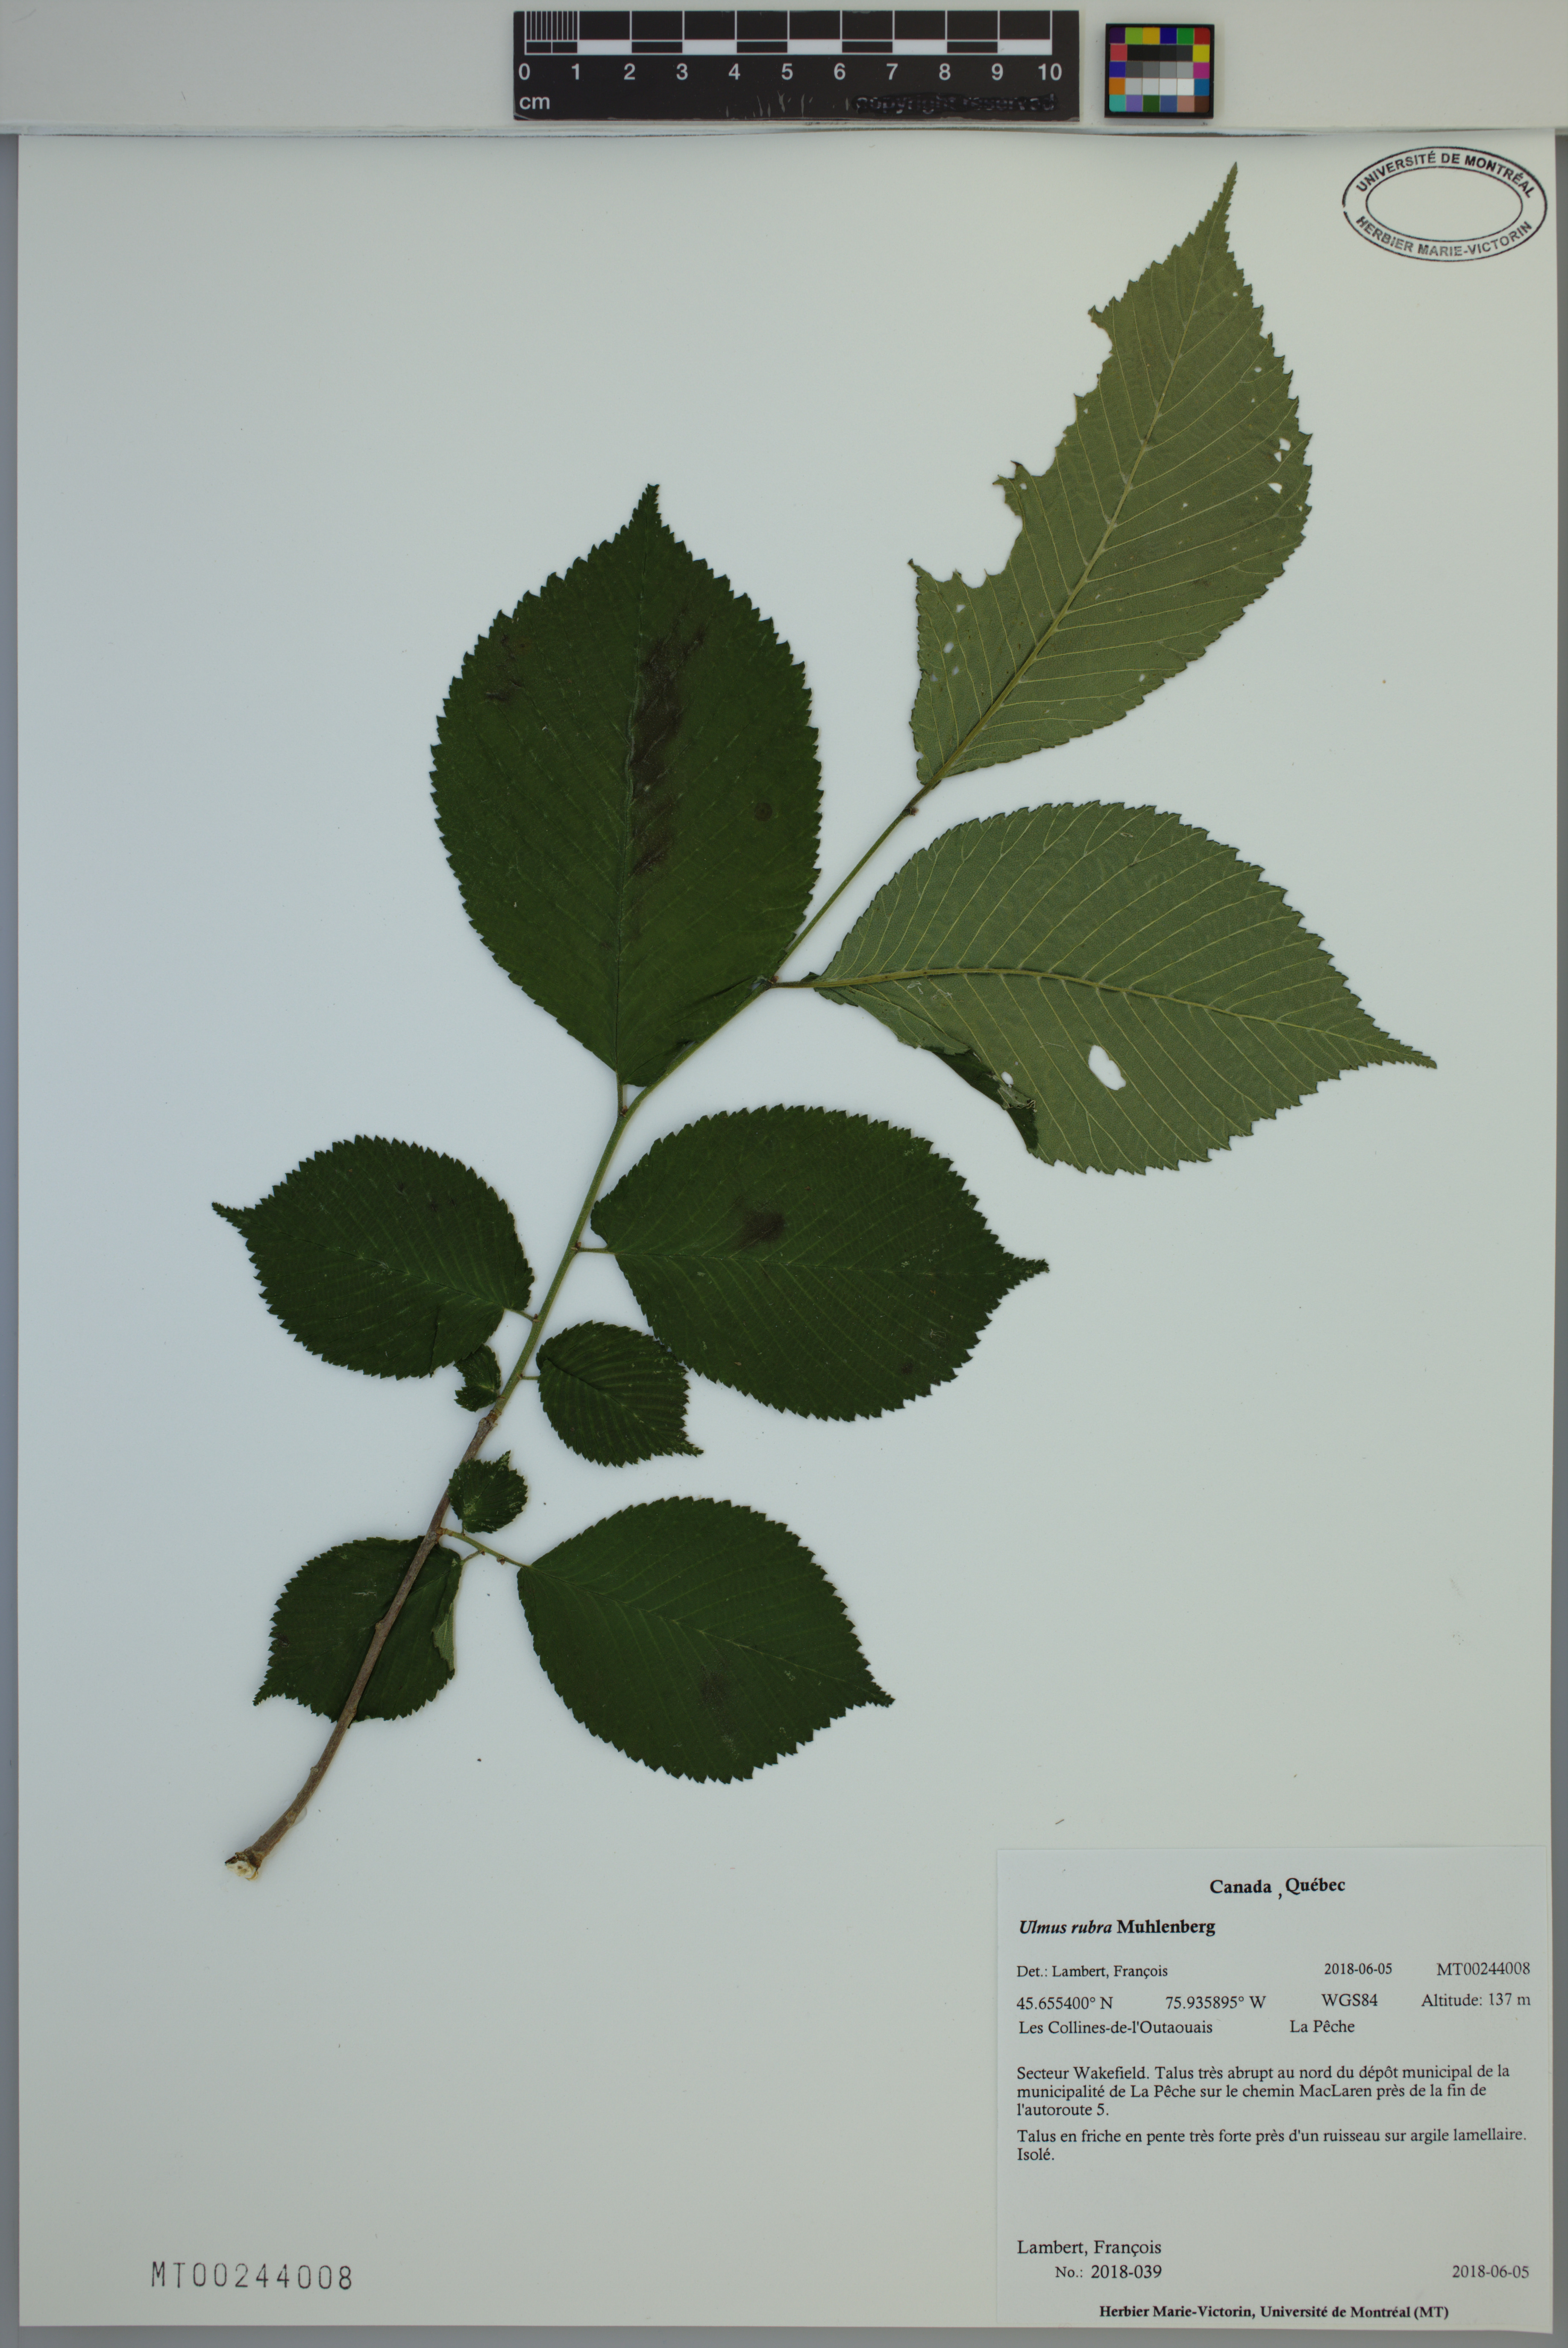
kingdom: Plantae
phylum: Tracheophyta
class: Magnoliopsida
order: Rosales
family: Ulmaceae
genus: Ulmus
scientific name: Ulmus rubra
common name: Slippery elm
